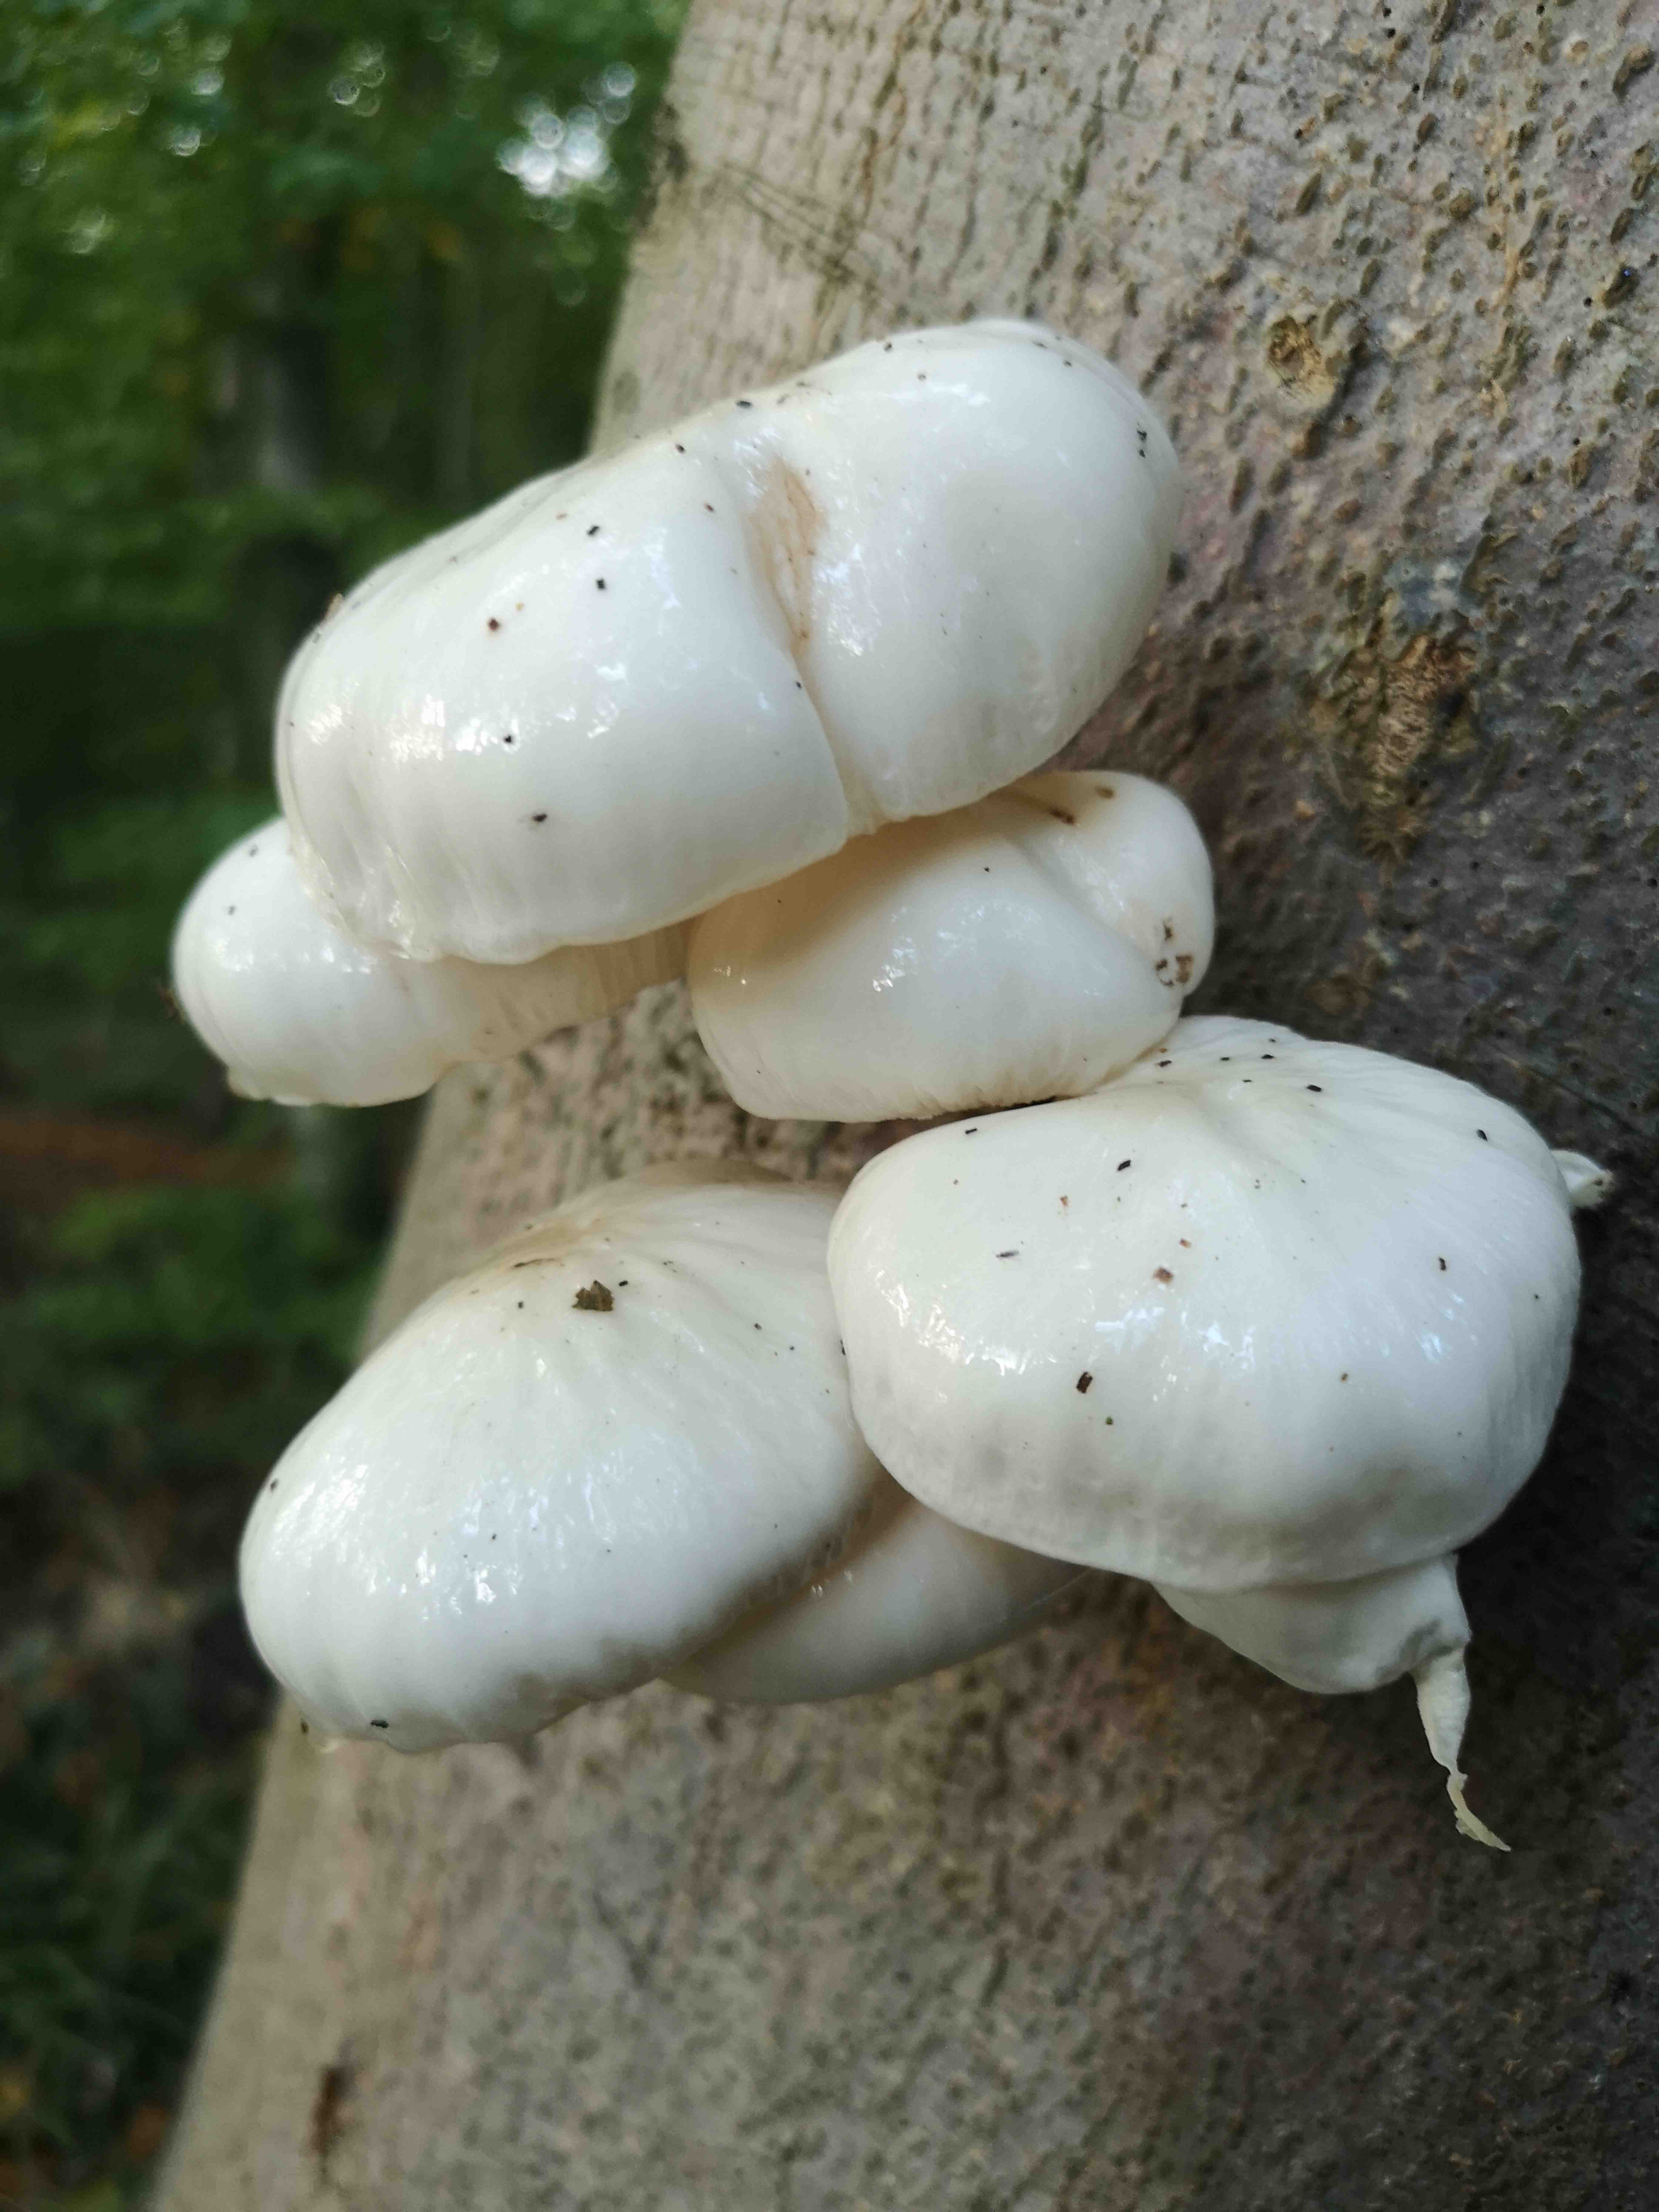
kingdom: Fungi
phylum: Basidiomycota
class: Agaricomycetes
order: Agaricales
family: Physalacriaceae
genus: Mucidula
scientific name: Mucidula mucida
